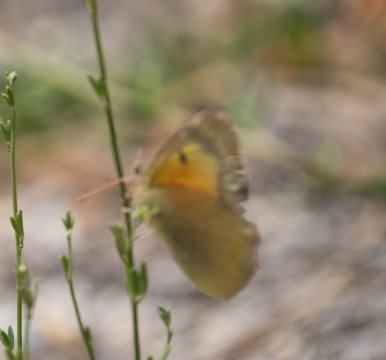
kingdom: Animalia
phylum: Arthropoda
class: Insecta
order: Lepidoptera
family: Pieridae
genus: Colias
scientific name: Colias eurytheme
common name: Orange Sulphur
